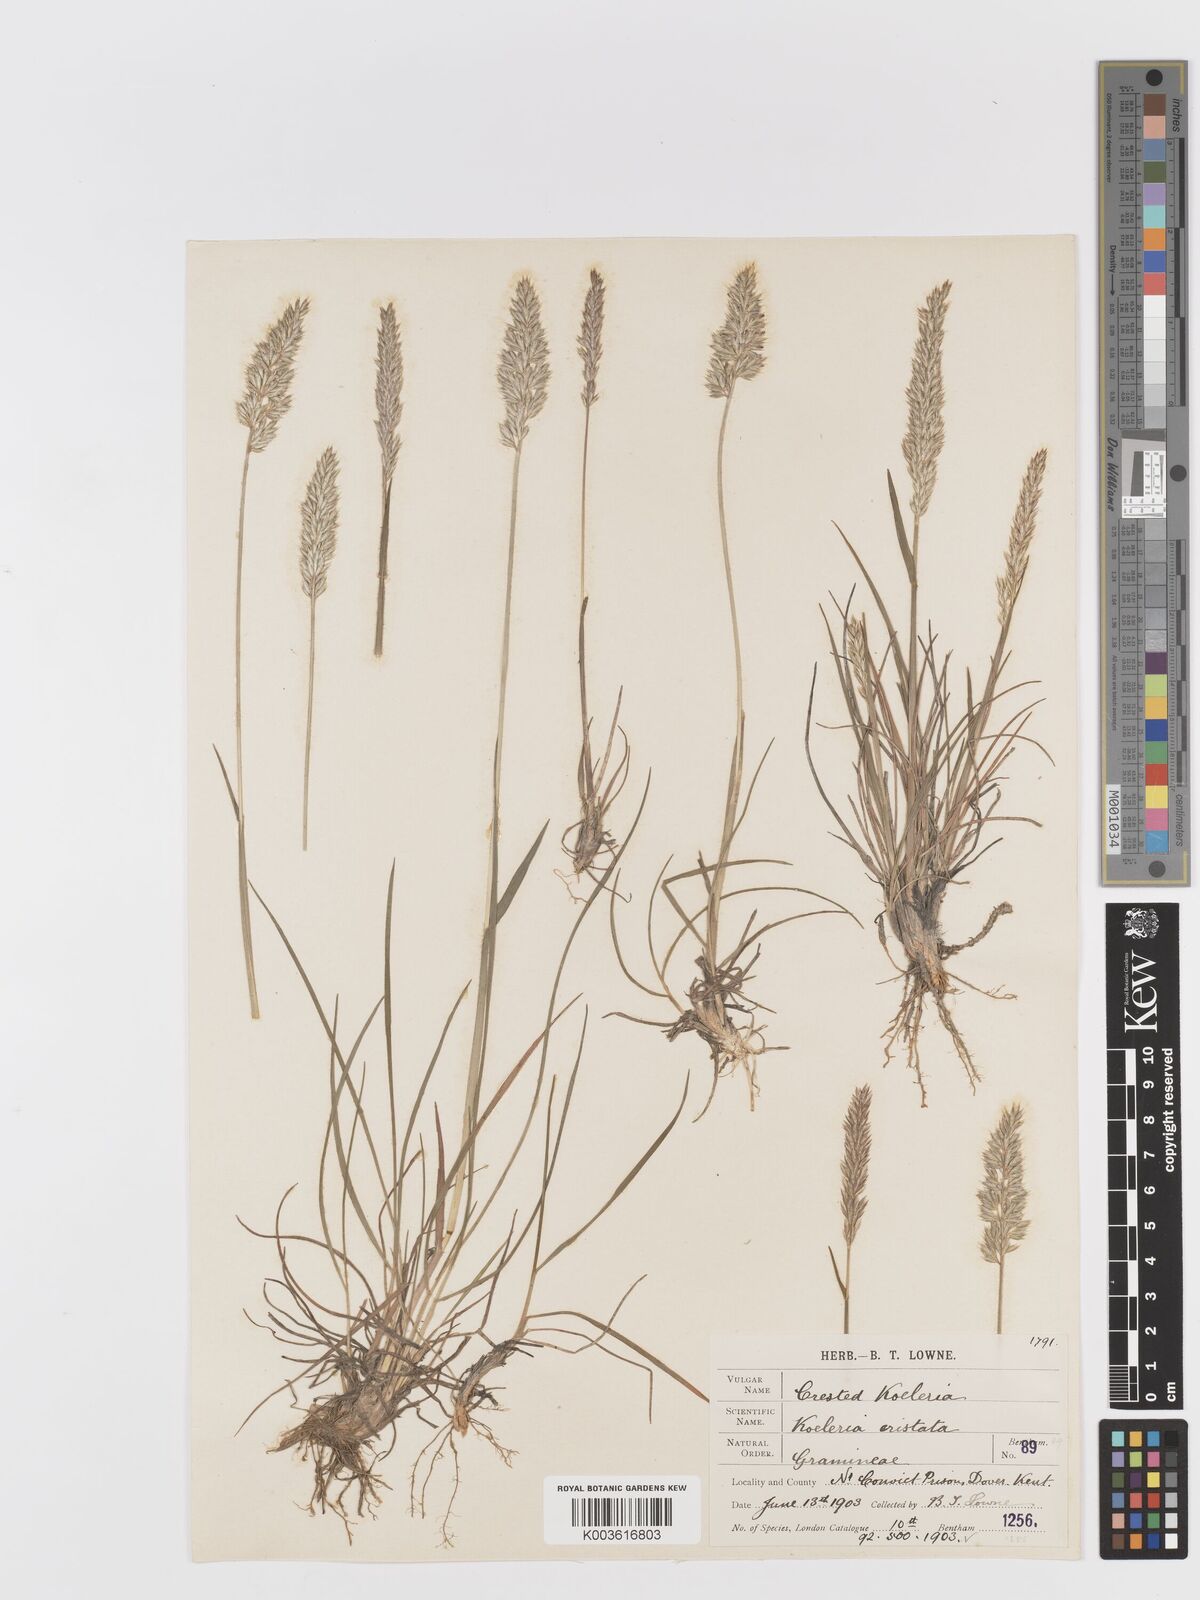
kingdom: Plantae
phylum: Tracheophyta
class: Liliopsida
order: Poales
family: Poaceae
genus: Koeleria
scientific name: Koeleria macrantha
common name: Crested hair-grass
